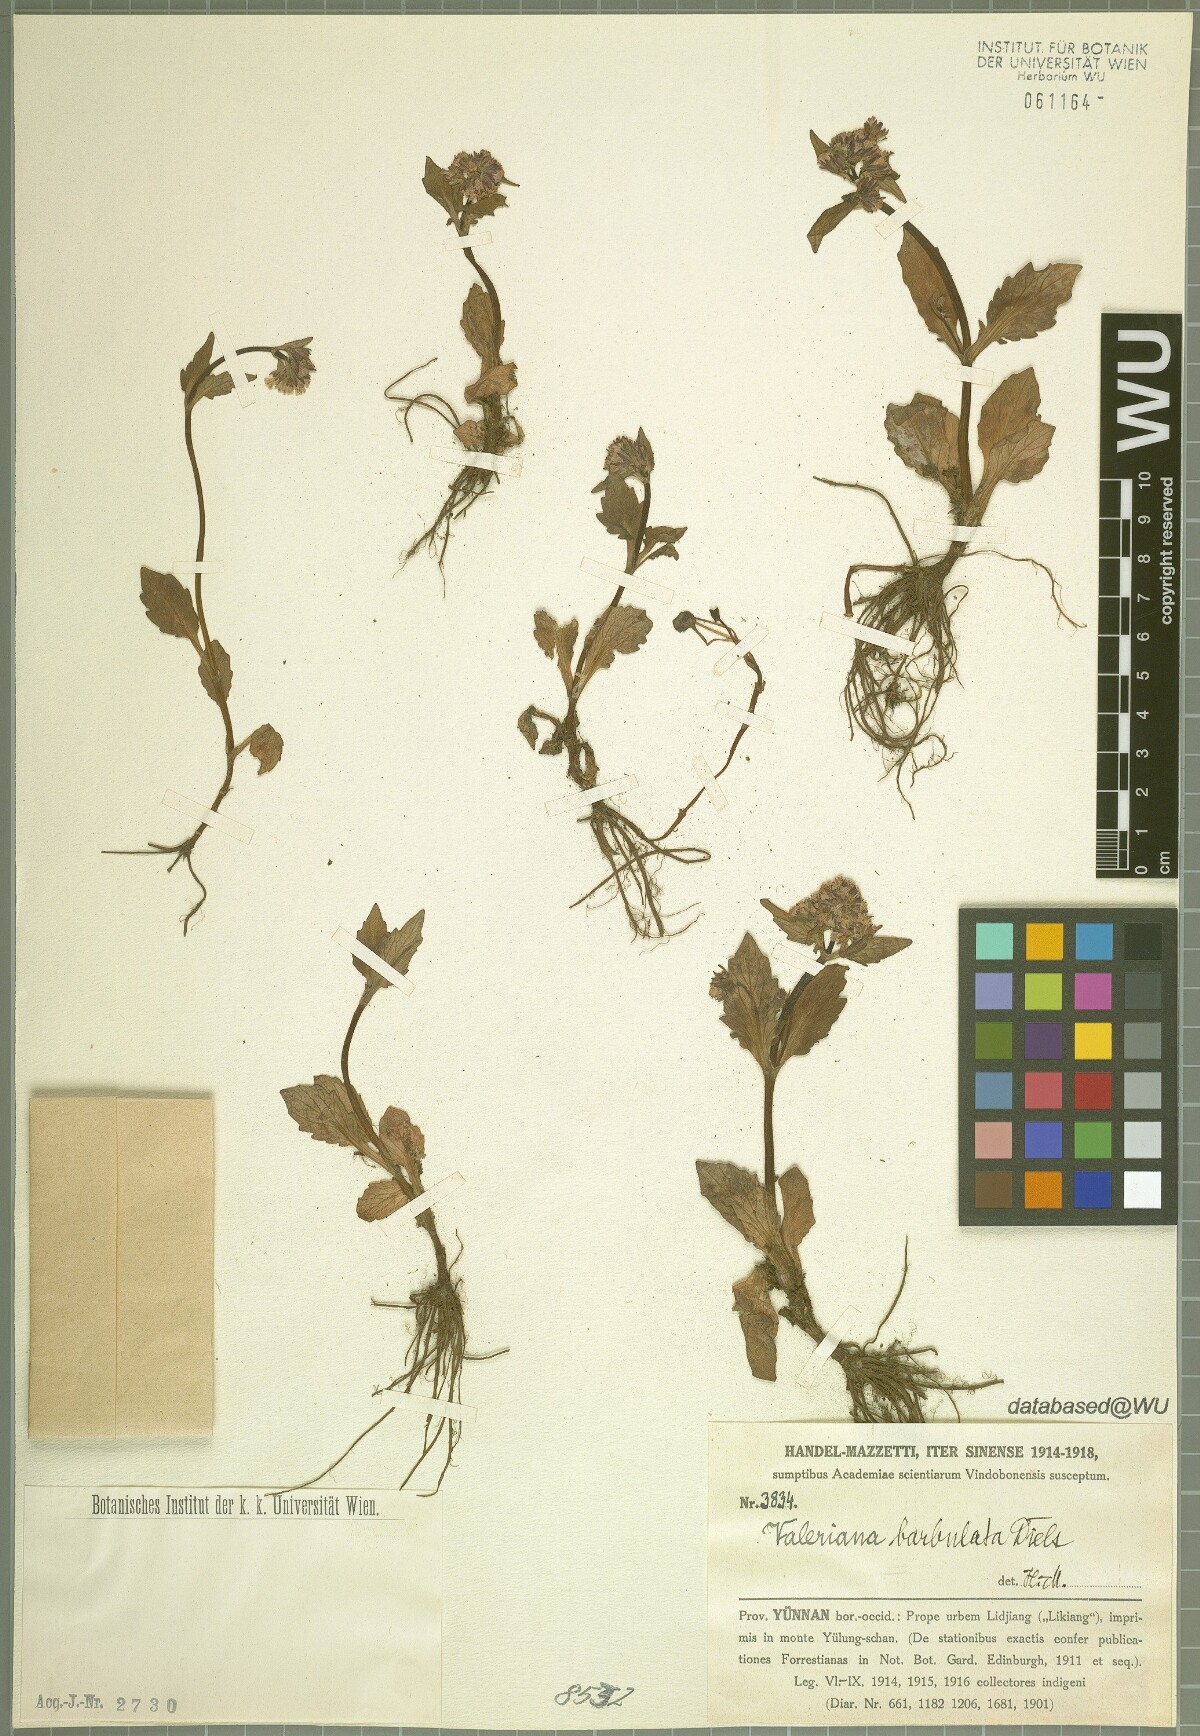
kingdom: Plantae
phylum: Tracheophyta
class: Magnoliopsida
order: Dipsacales
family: Caprifoliaceae
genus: Valeriana
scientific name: Valeriana barbulata
